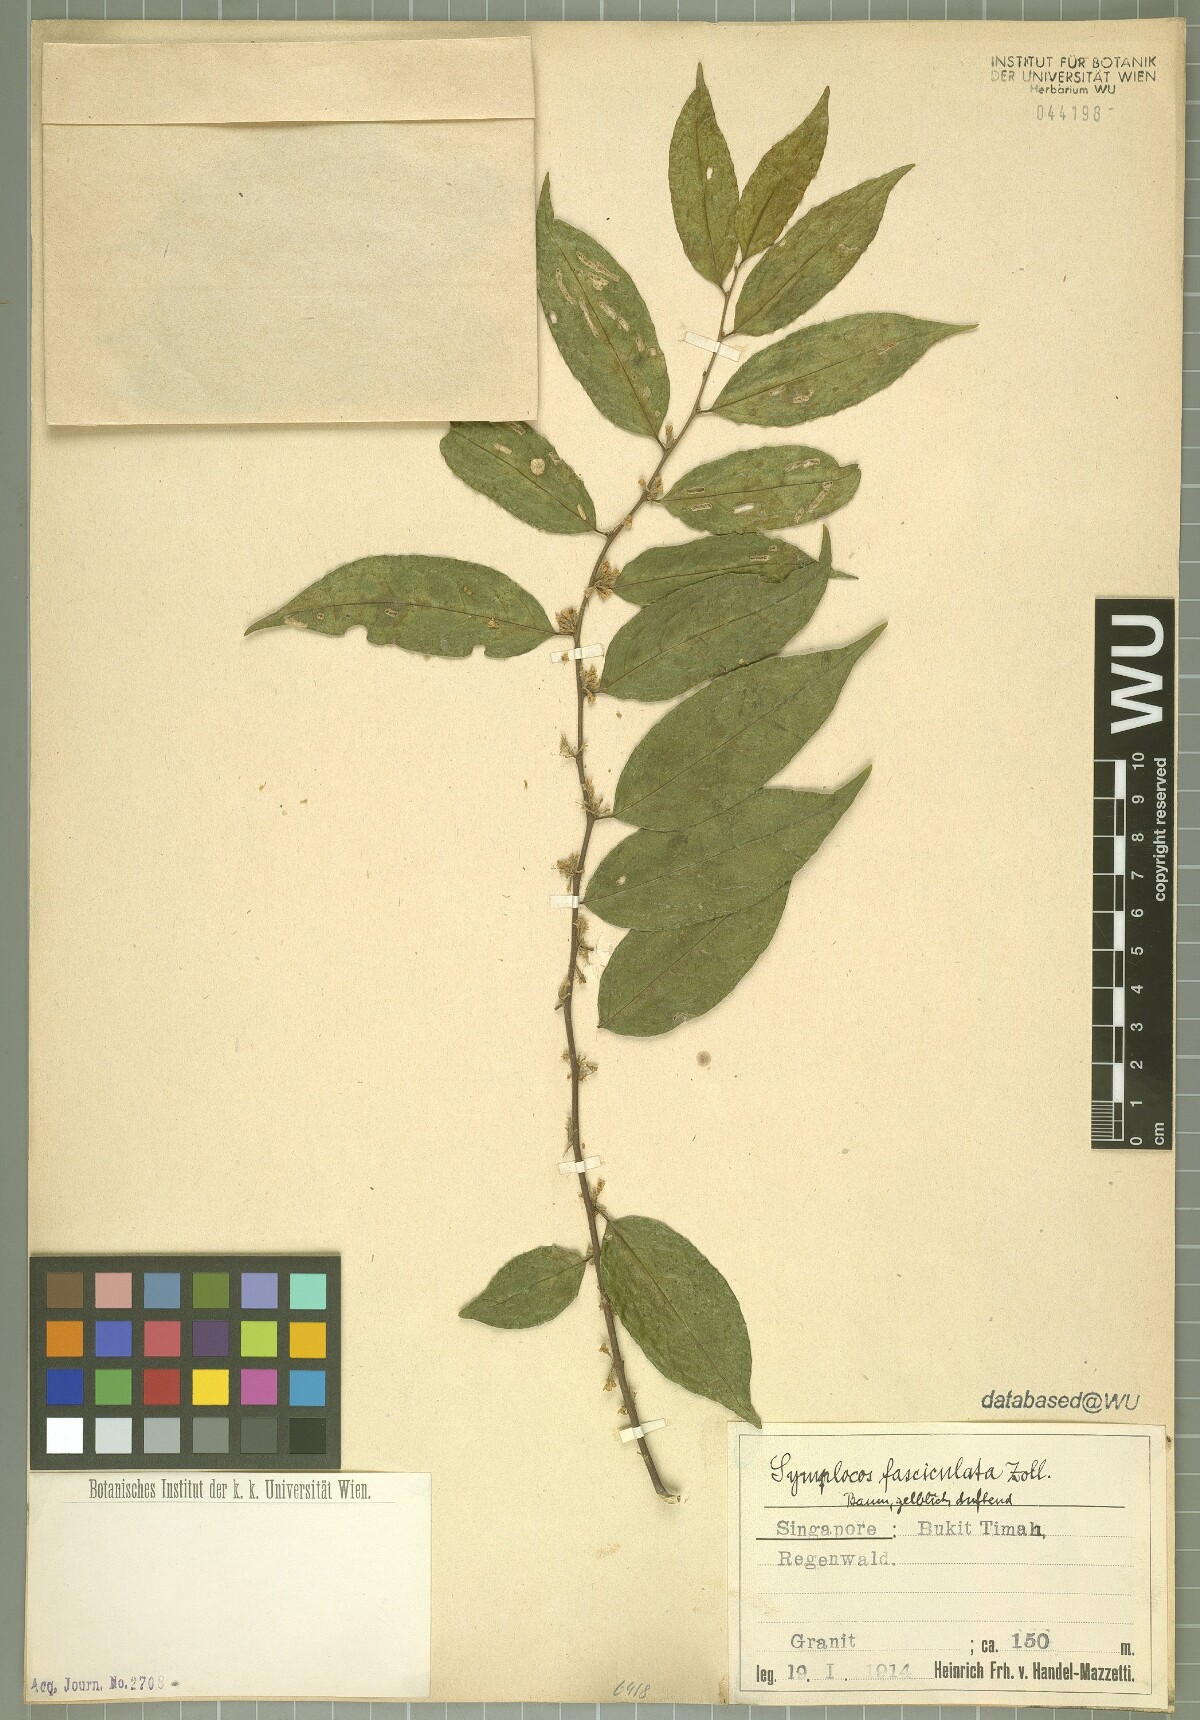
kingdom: Plantae
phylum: Tracheophyta
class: Magnoliopsida
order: Ericales
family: Symplocaceae
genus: Symplocos
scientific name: Symplocos fasciculata
